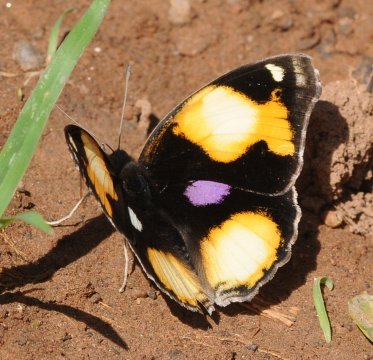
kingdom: Animalia
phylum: Arthropoda
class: Insecta
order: Lepidoptera
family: Nymphalidae
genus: Junonia
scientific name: Junonia hierta
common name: Yellow Pansy
